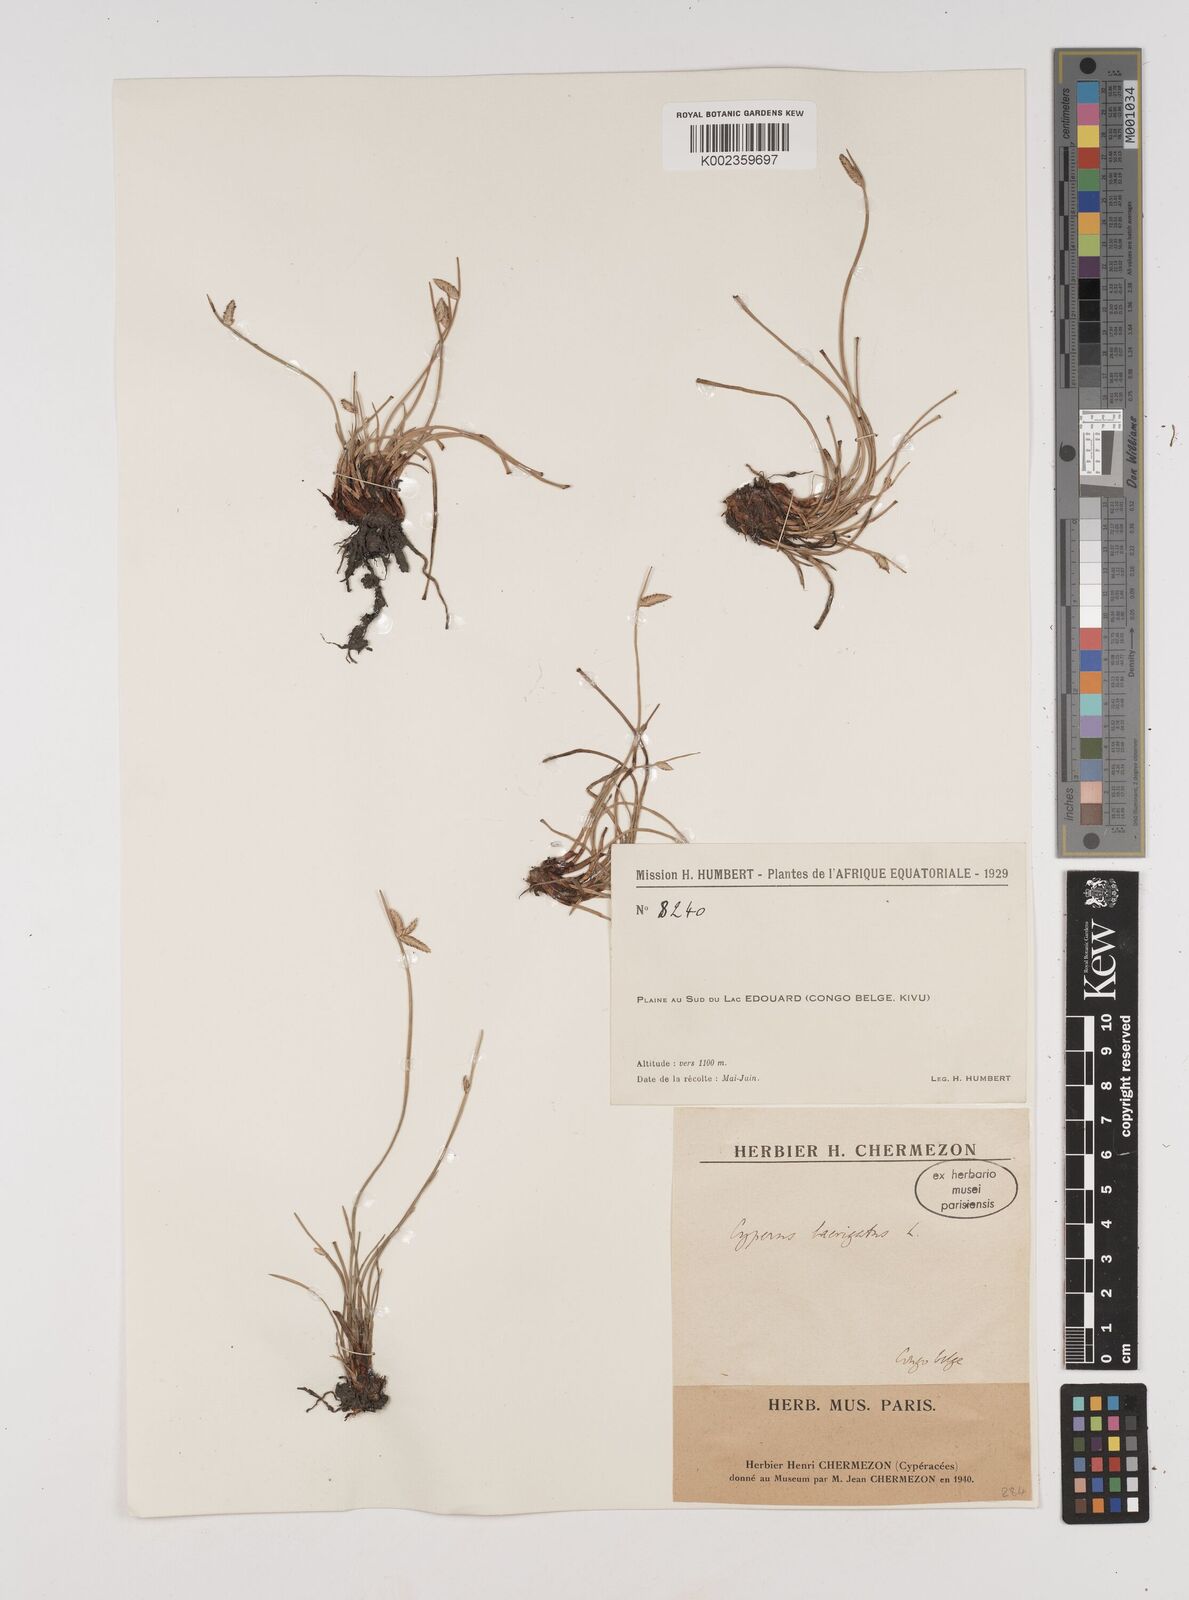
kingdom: Plantae
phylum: Tracheophyta
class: Liliopsida
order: Poales
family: Cyperaceae
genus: Cyperus
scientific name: Cyperus laevigatus
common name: Smooth flat sedge
